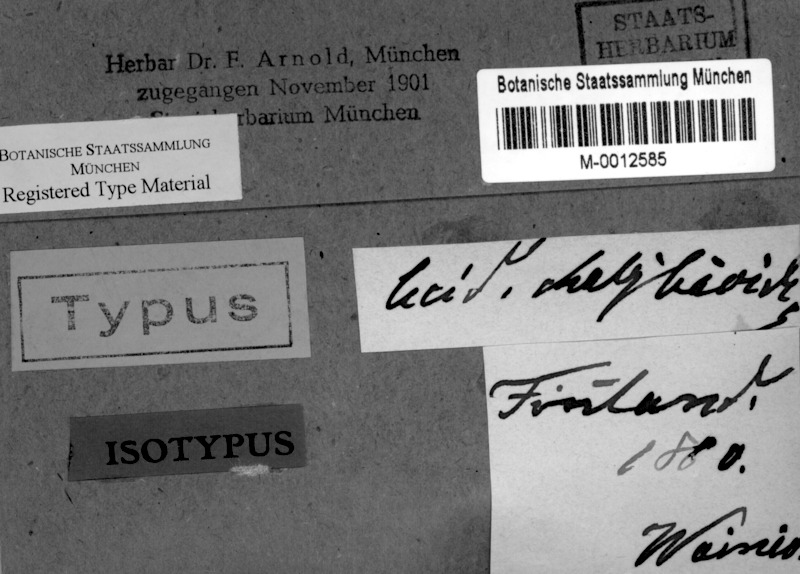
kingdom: Fungi
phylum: Ascomycota
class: Lecanoromycetes
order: Lecanorales
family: Lecanoraceae
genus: Claurouxia
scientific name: Claurouxia chalybeioides
